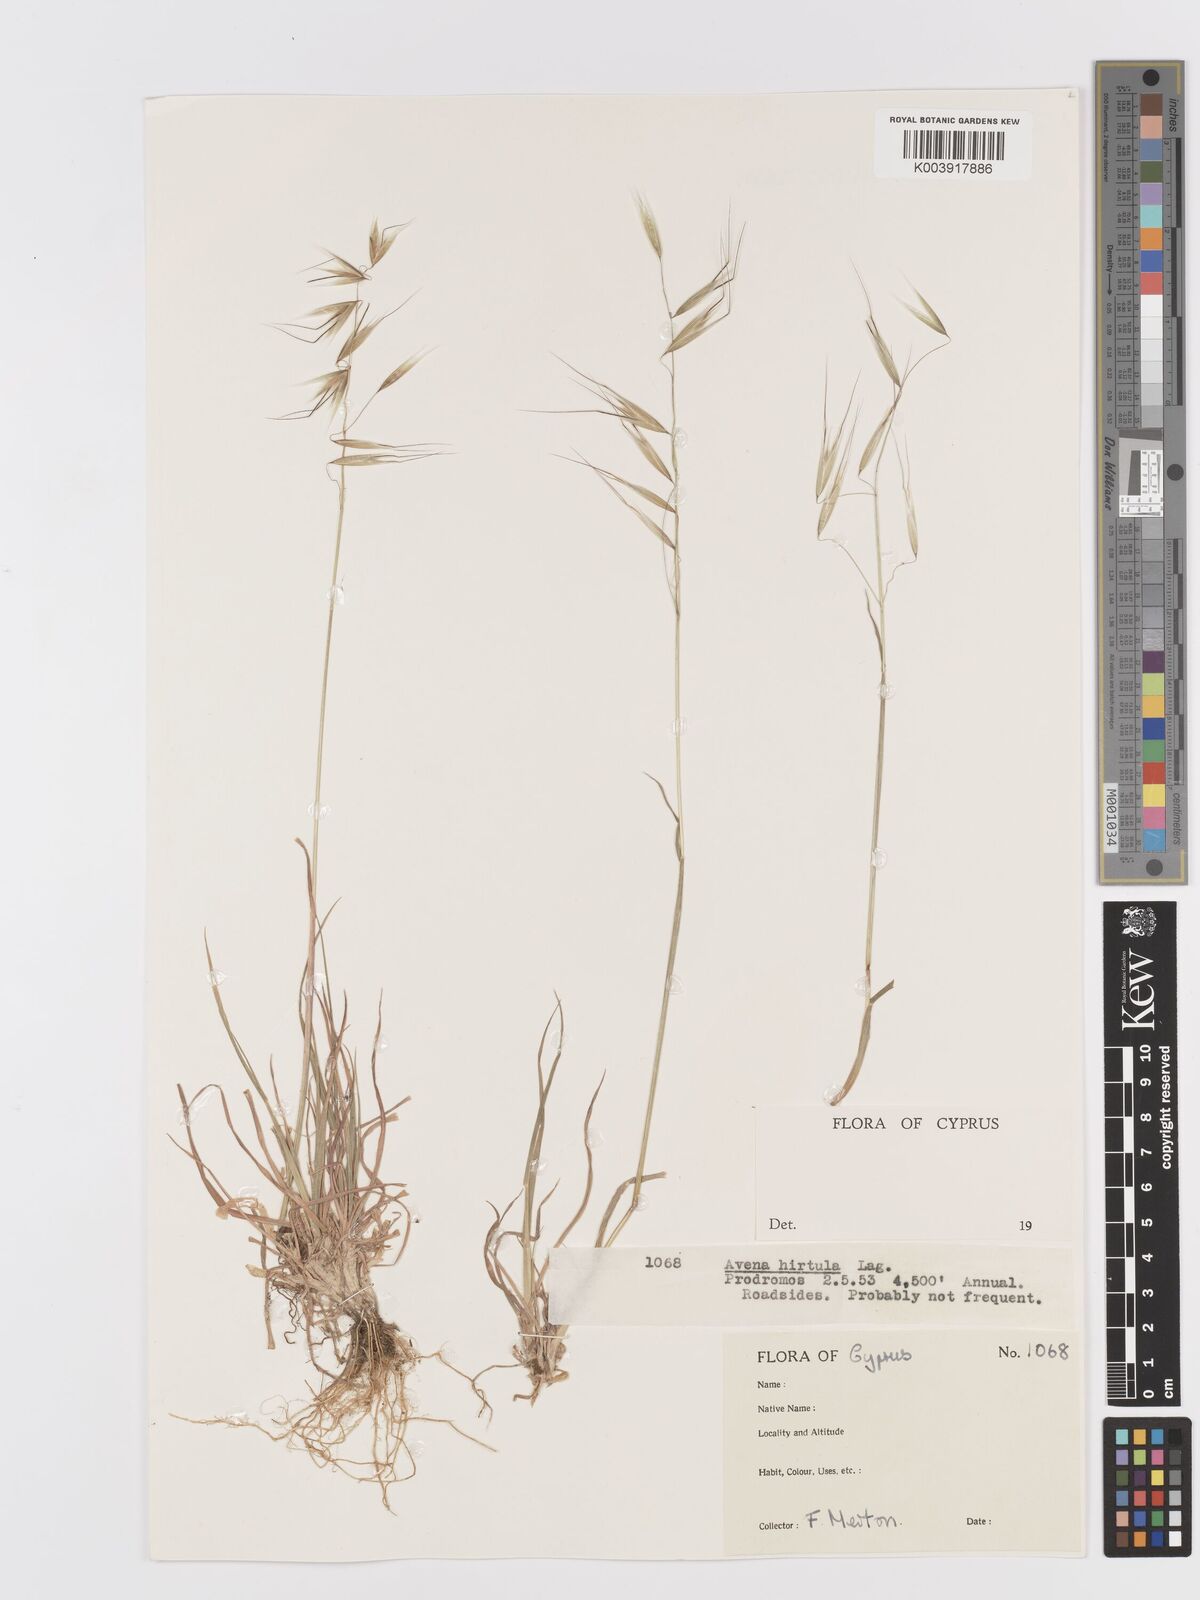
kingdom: Plantae
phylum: Tracheophyta
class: Liliopsida
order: Poales
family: Poaceae
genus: Avena
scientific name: Avena
